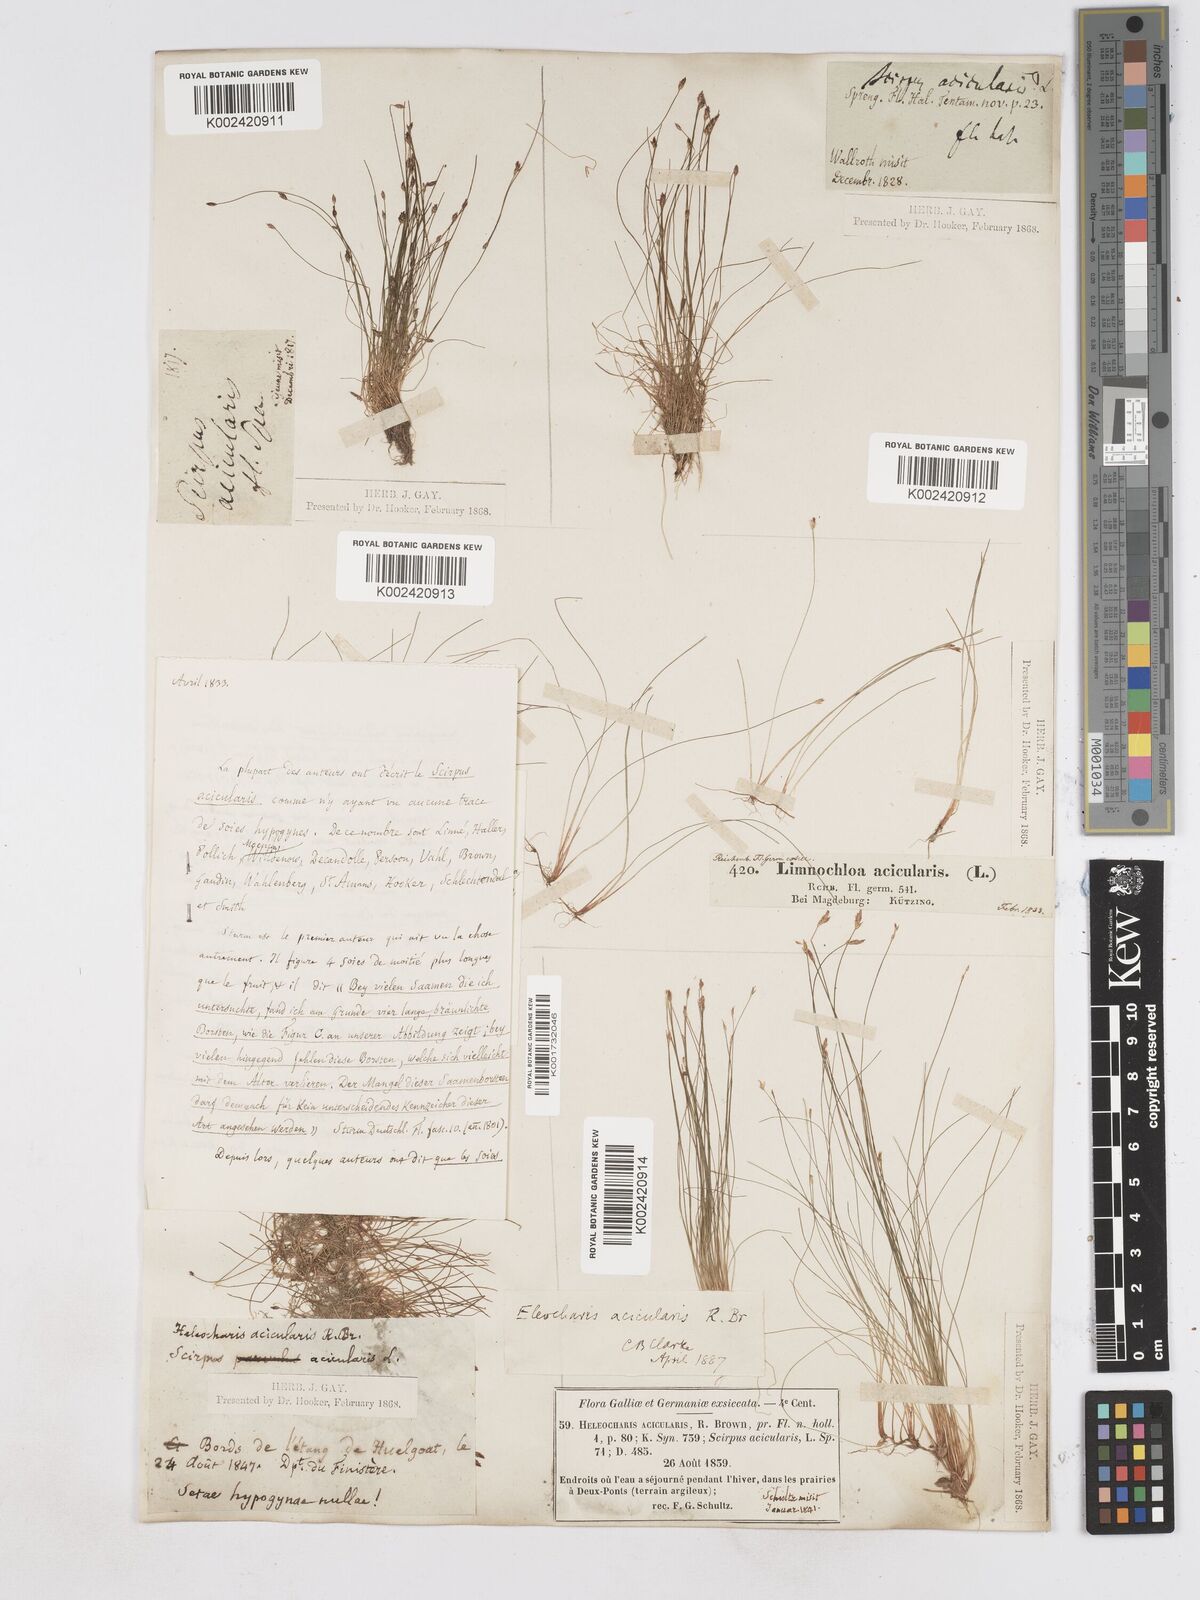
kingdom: Plantae
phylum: Tracheophyta
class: Liliopsida
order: Poales
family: Cyperaceae
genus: Eleocharis
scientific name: Eleocharis acicularis
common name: Needle spike-rush
